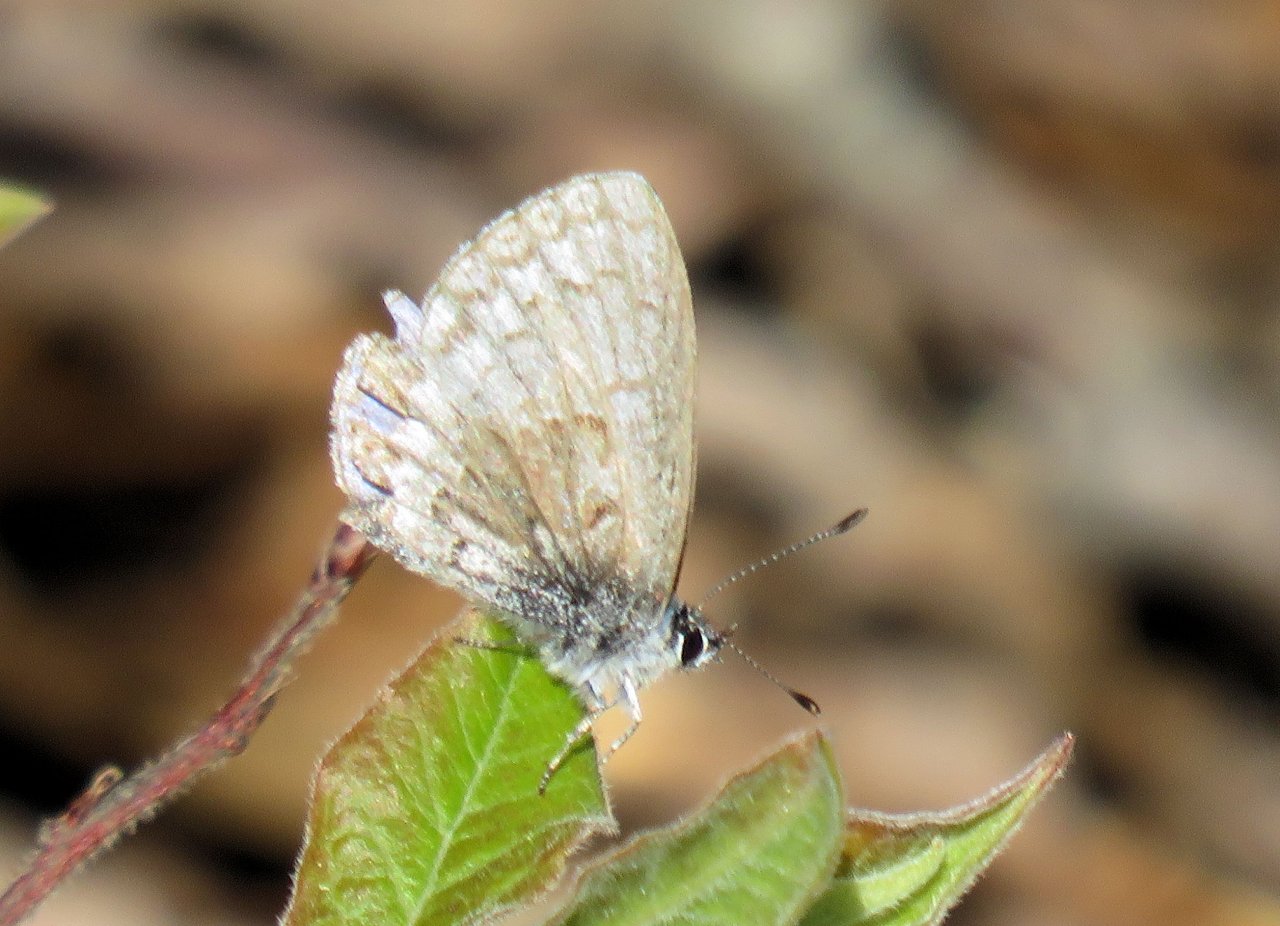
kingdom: Animalia
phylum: Arthropoda
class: Insecta
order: Lepidoptera
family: Lycaenidae
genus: Celastrina
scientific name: Celastrina lucia
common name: Northern Spring Azure
